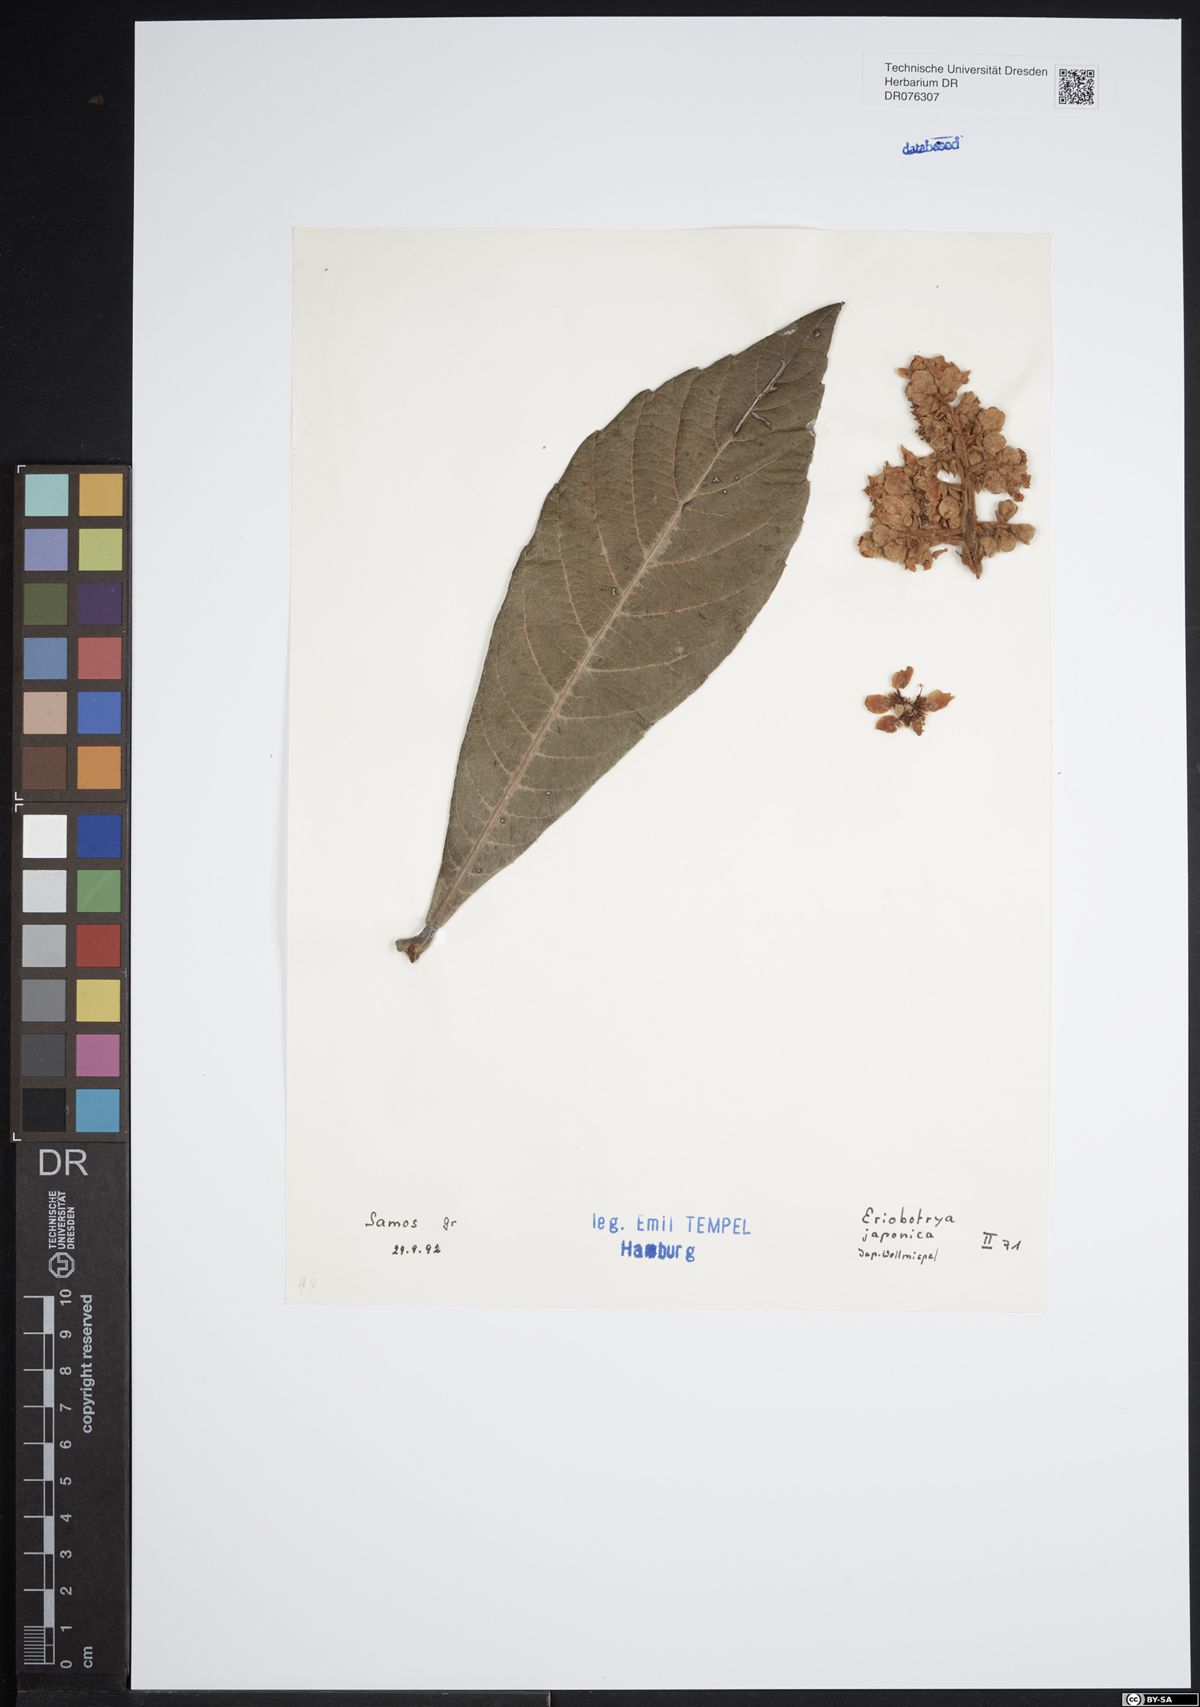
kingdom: Plantae
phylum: Tracheophyta
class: Magnoliopsida
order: Rosales
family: Rosaceae
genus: Rhaphiolepis
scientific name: Rhaphiolepis bibas
